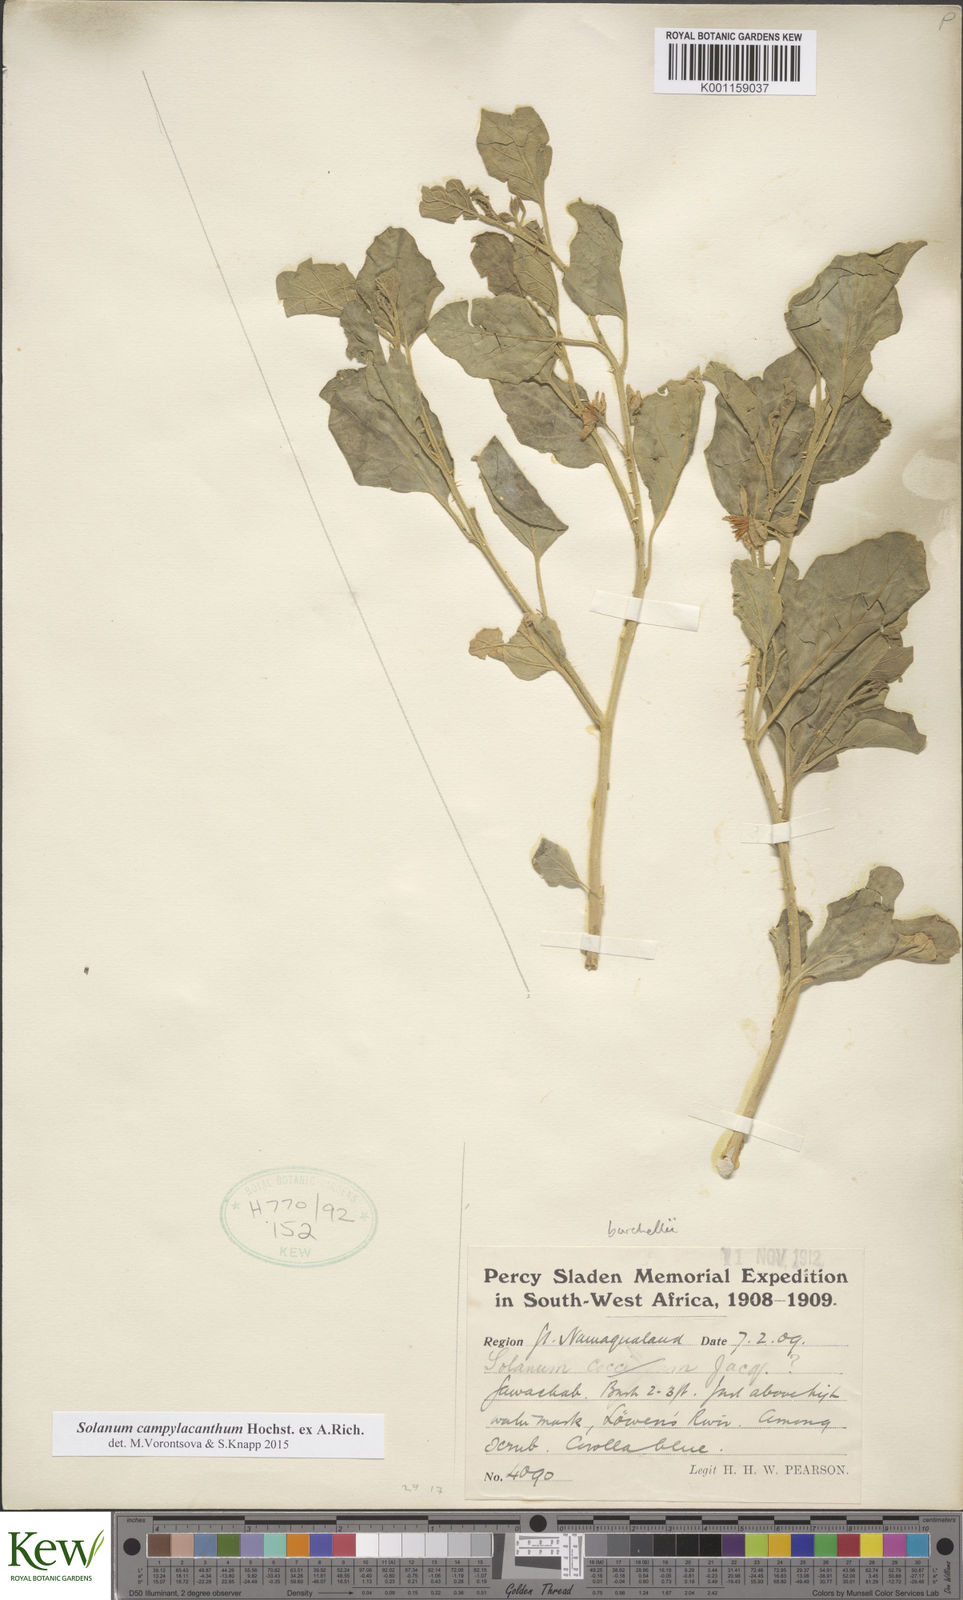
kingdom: Plantae
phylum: Tracheophyta
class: Magnoliopsida
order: Solanales
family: Solanaceae
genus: Solanum
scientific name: Solanum campylacanthum
